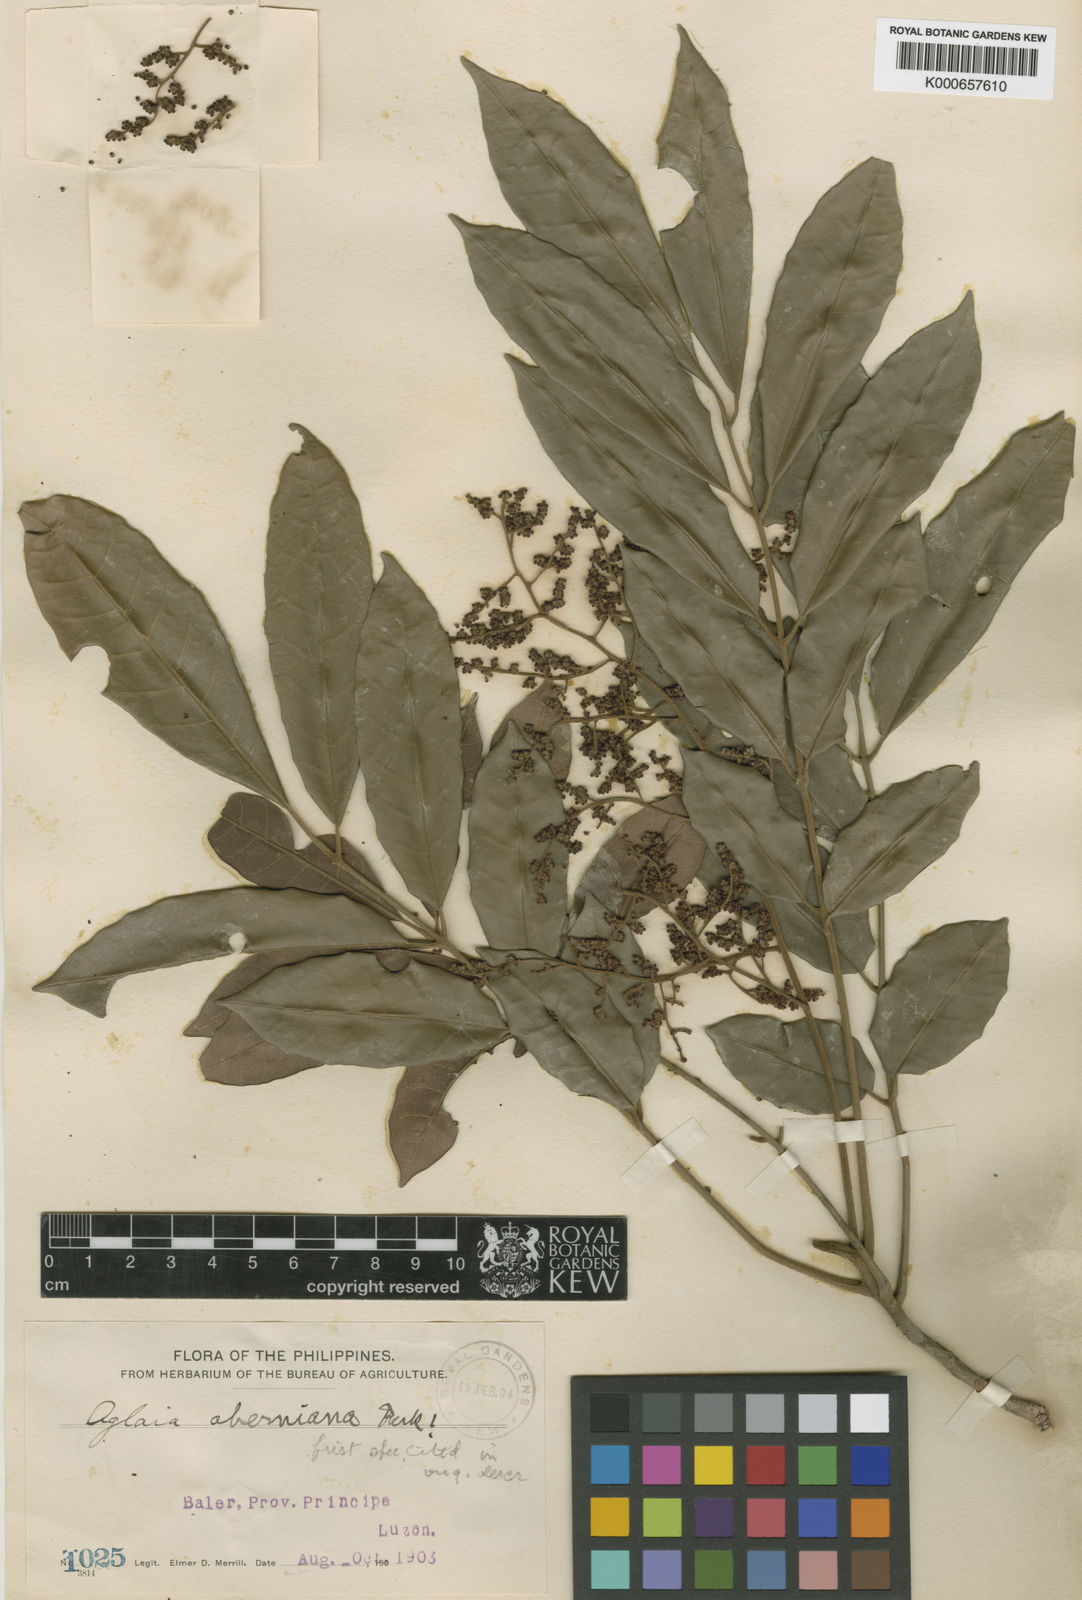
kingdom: Plantae
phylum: Tracheophyta
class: Magnoliopsida
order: Sapindales
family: Meliaceae
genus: Aglaia
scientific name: Aglaia aherniana
